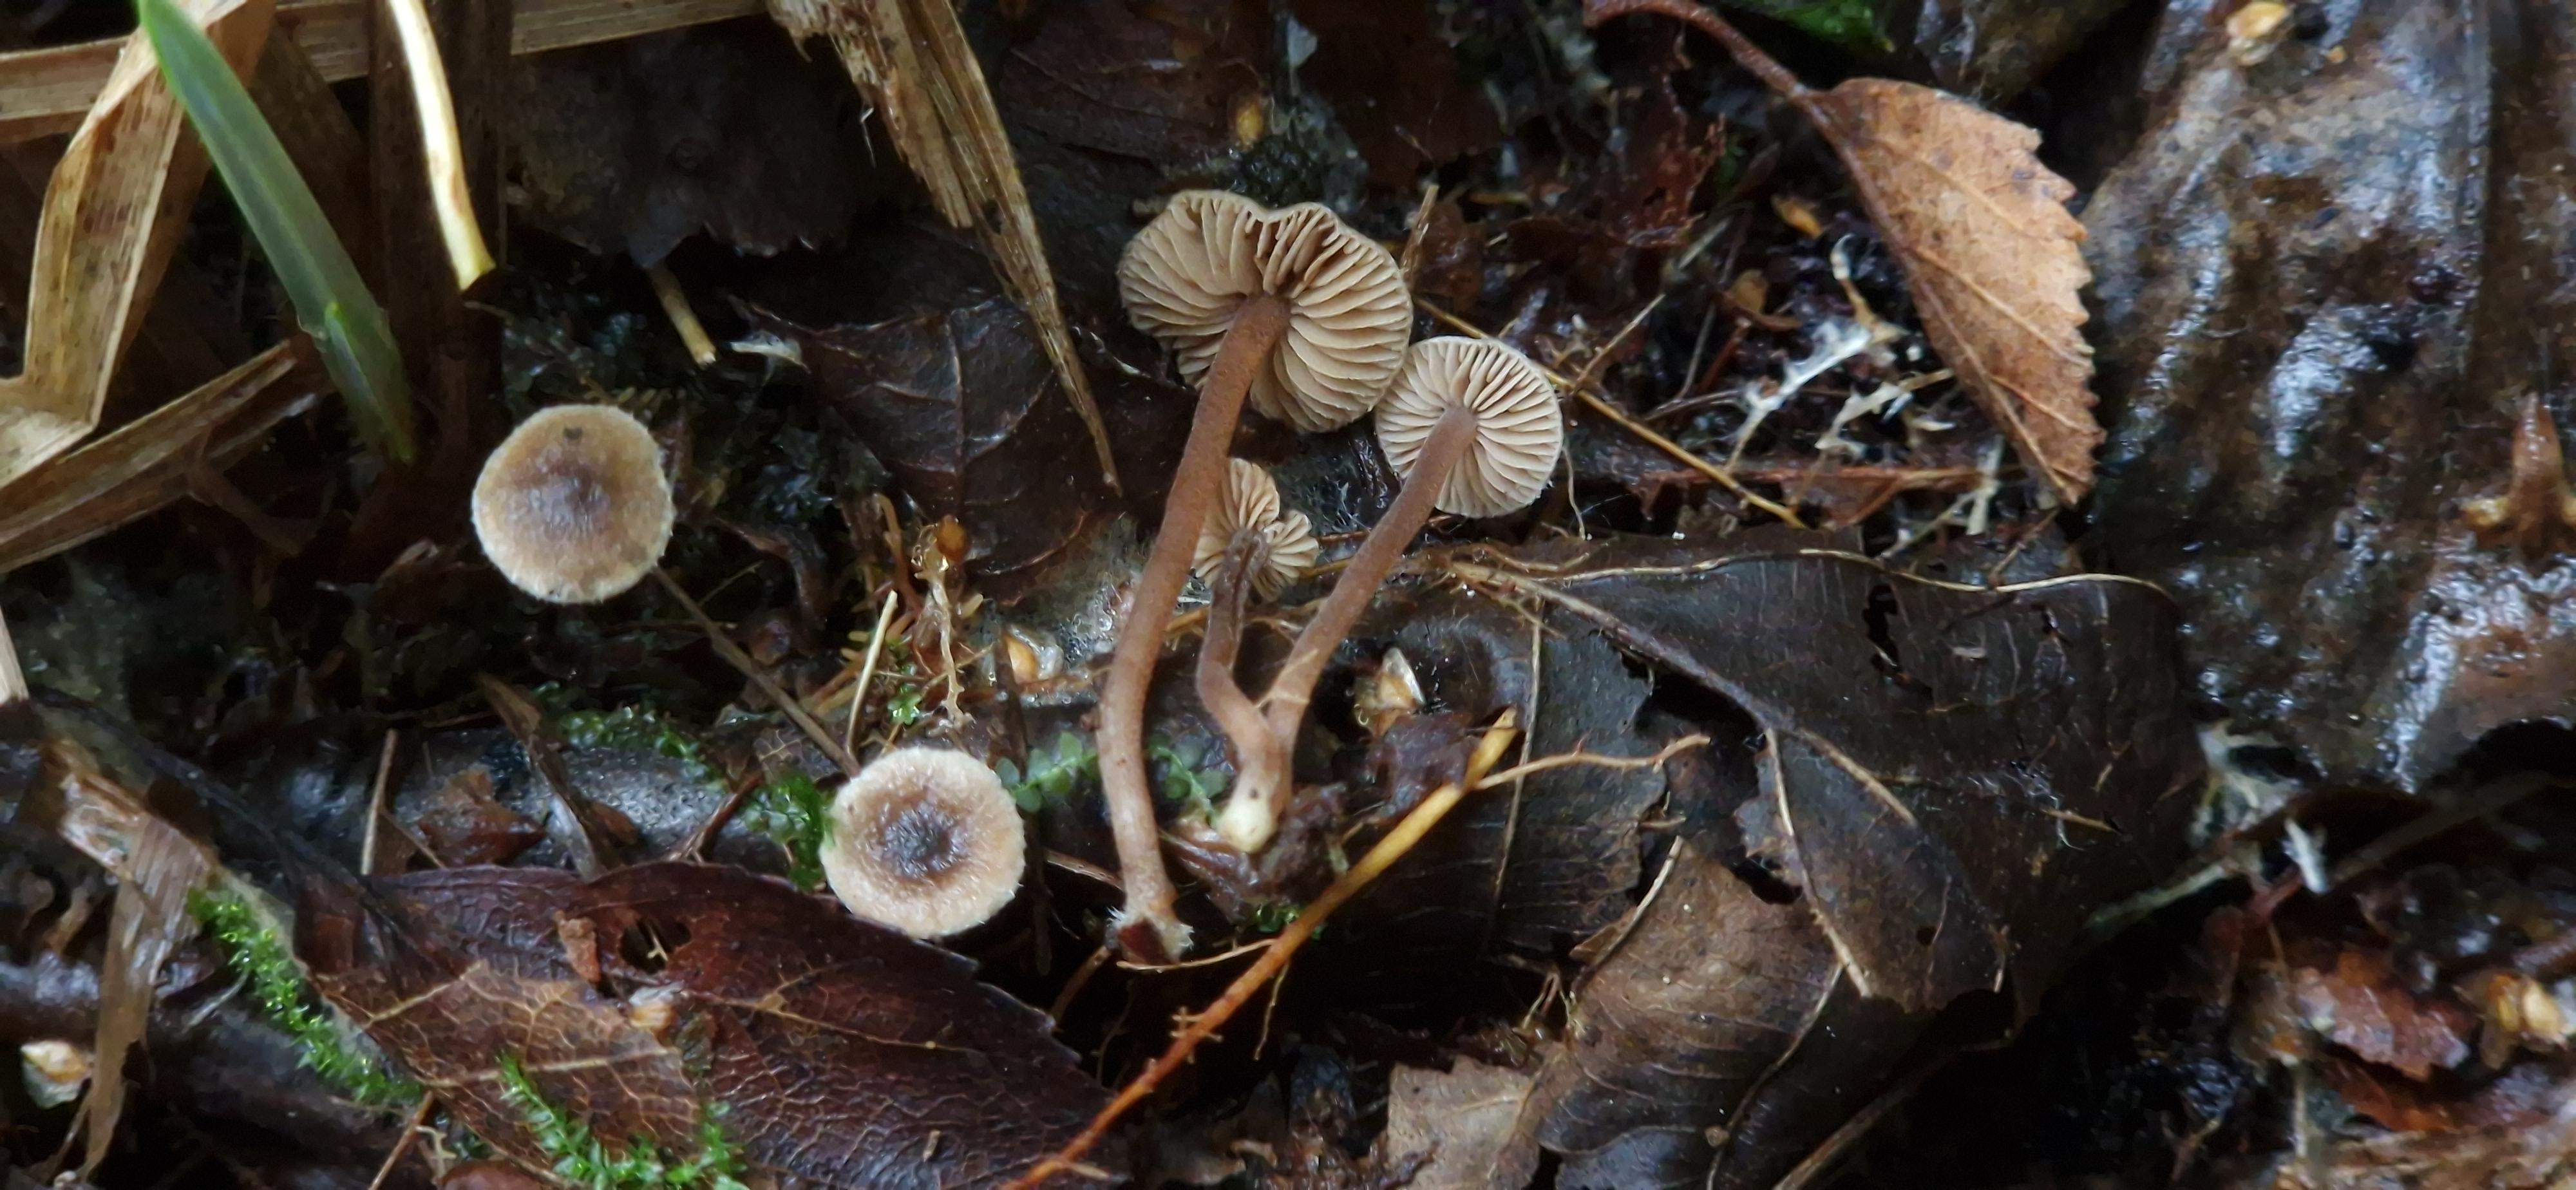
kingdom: Fungi
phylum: Basidiomycota
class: Agaricomycetes
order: Agaricales
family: Inocybaceae
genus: Inocybe
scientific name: Inocybe petiginosa
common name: liden trævlhat
